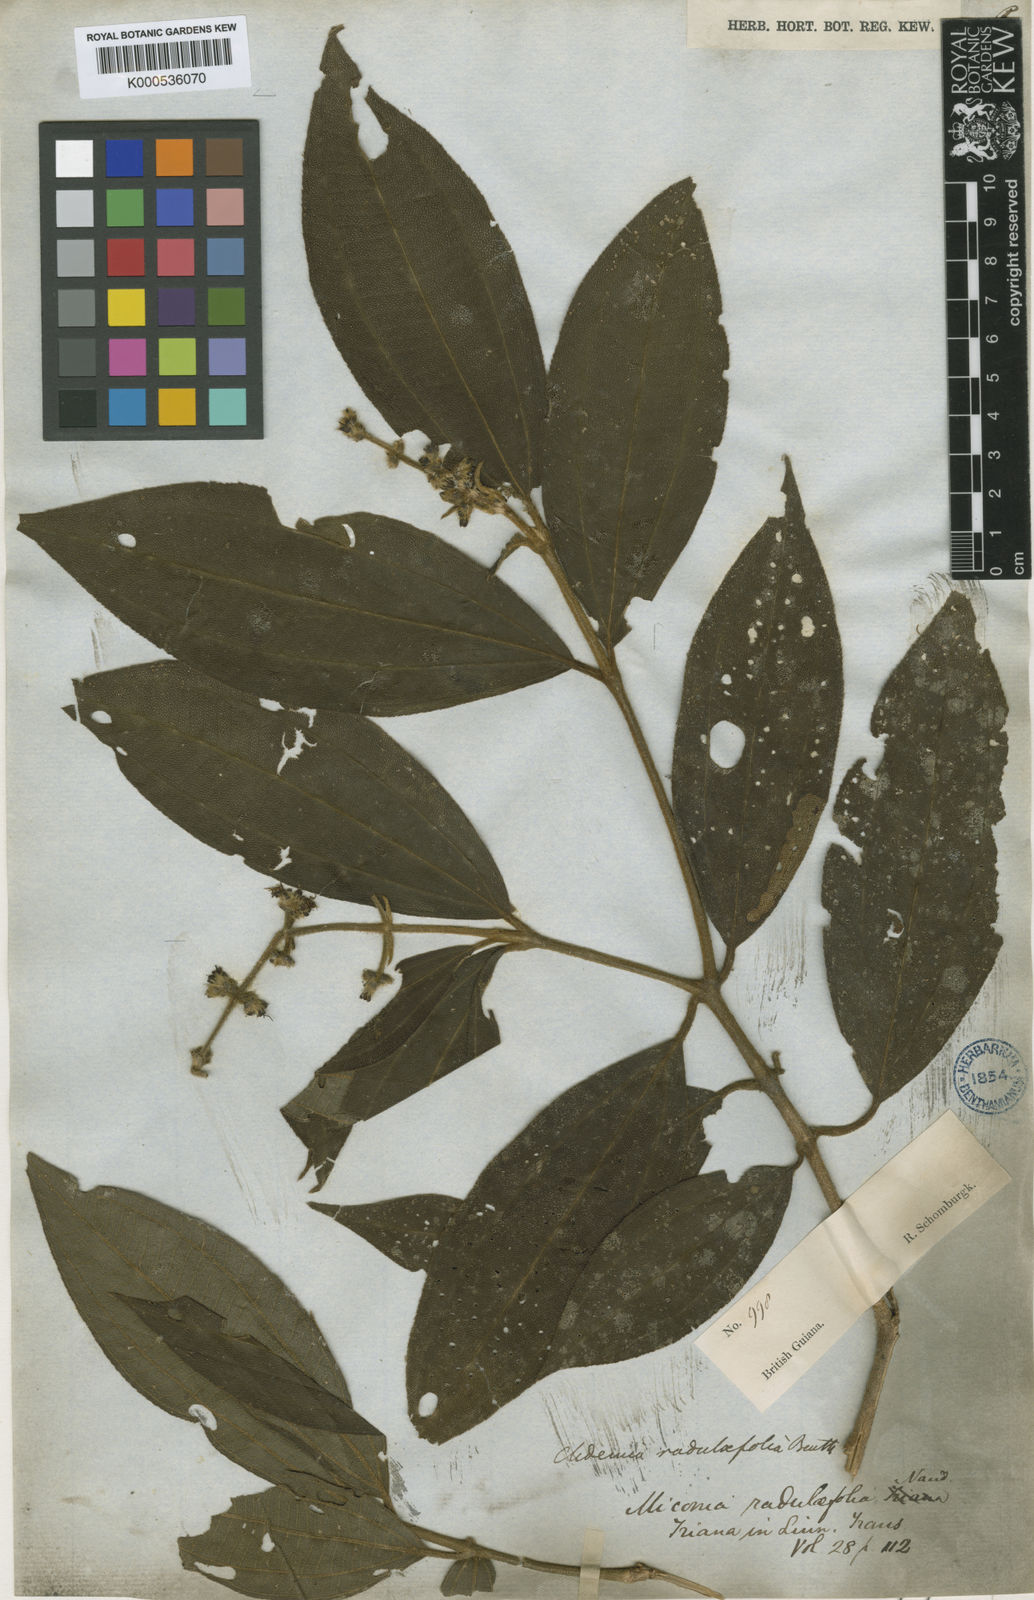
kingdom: Plantae
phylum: Tracheophyta
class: Magnoliopsida
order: Myrtales
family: Melastomataceae
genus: Miconia
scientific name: Miconia radulifolia
